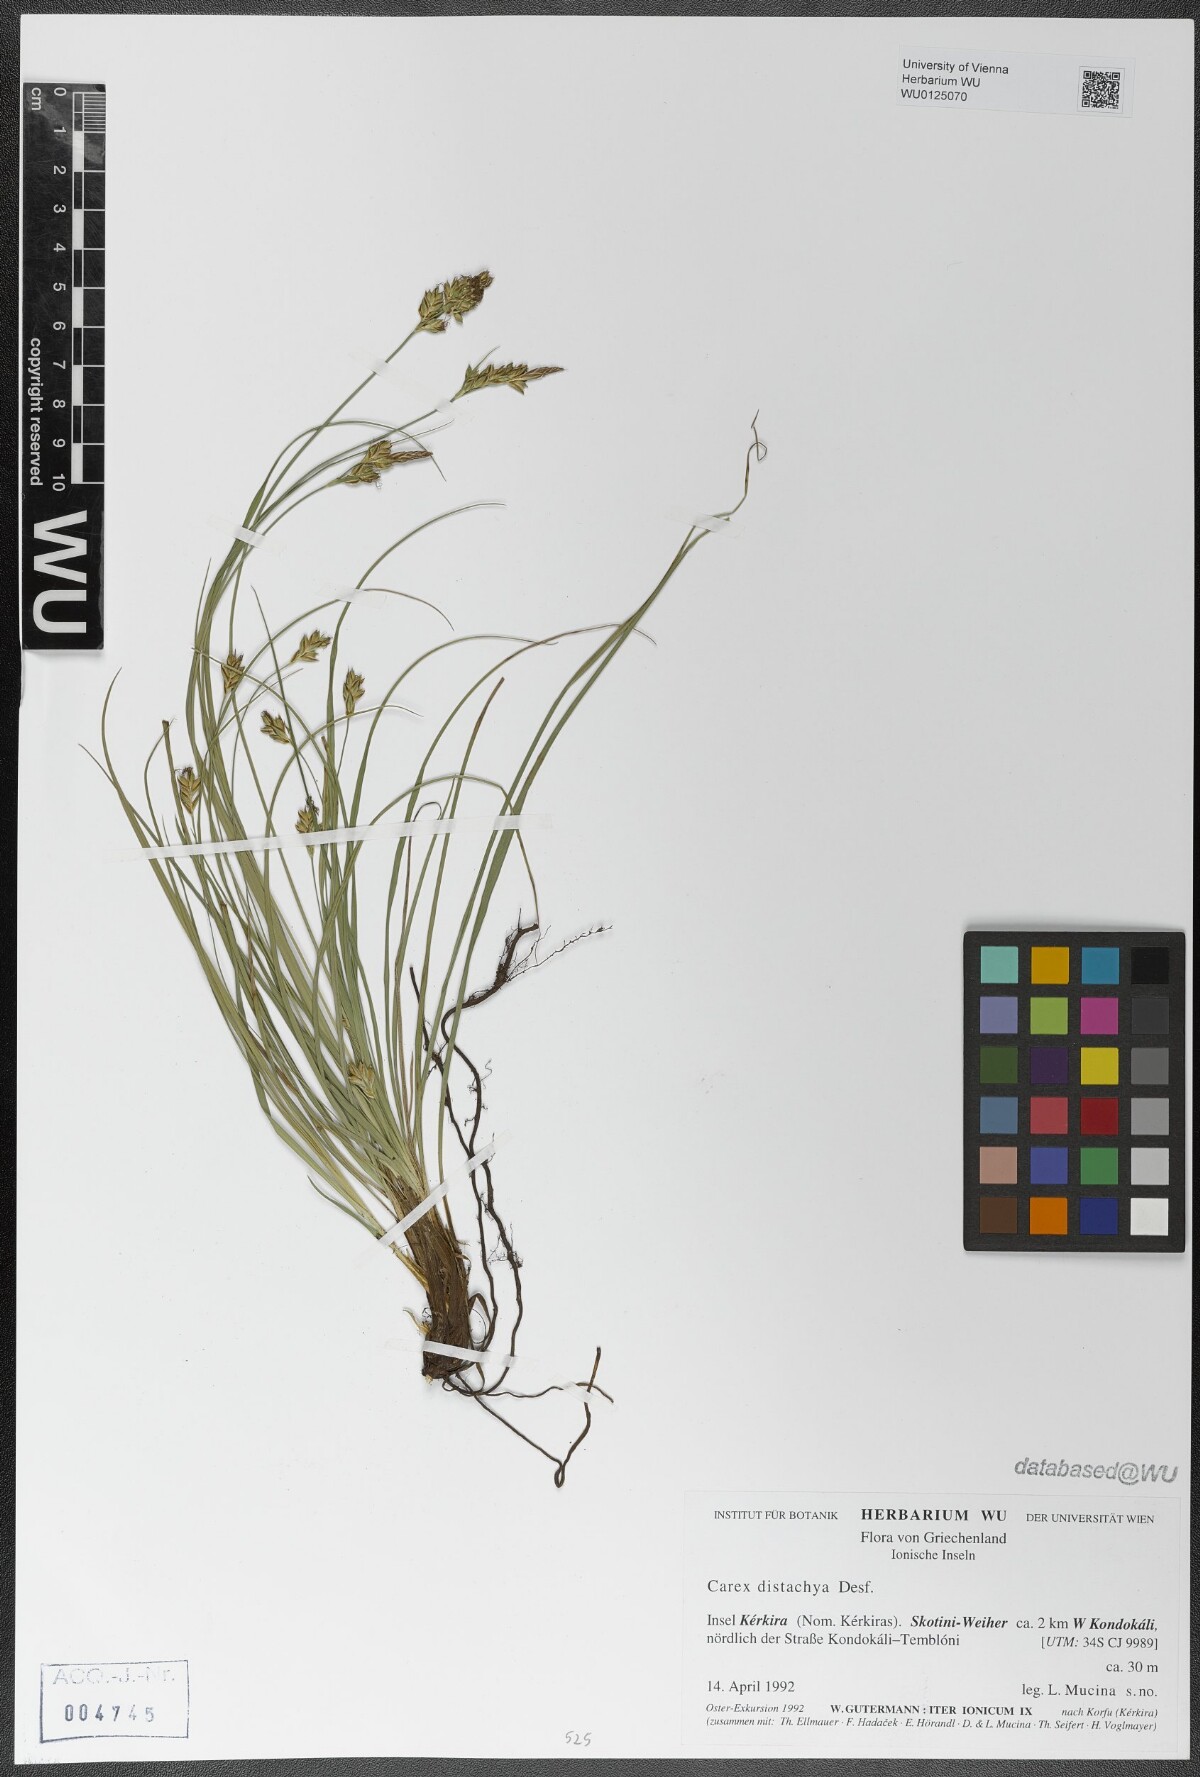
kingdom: Plantae
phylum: Tracheophyta
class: Liliopsida
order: Poales
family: Cyperaceae
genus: Carex
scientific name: Carex distachya
